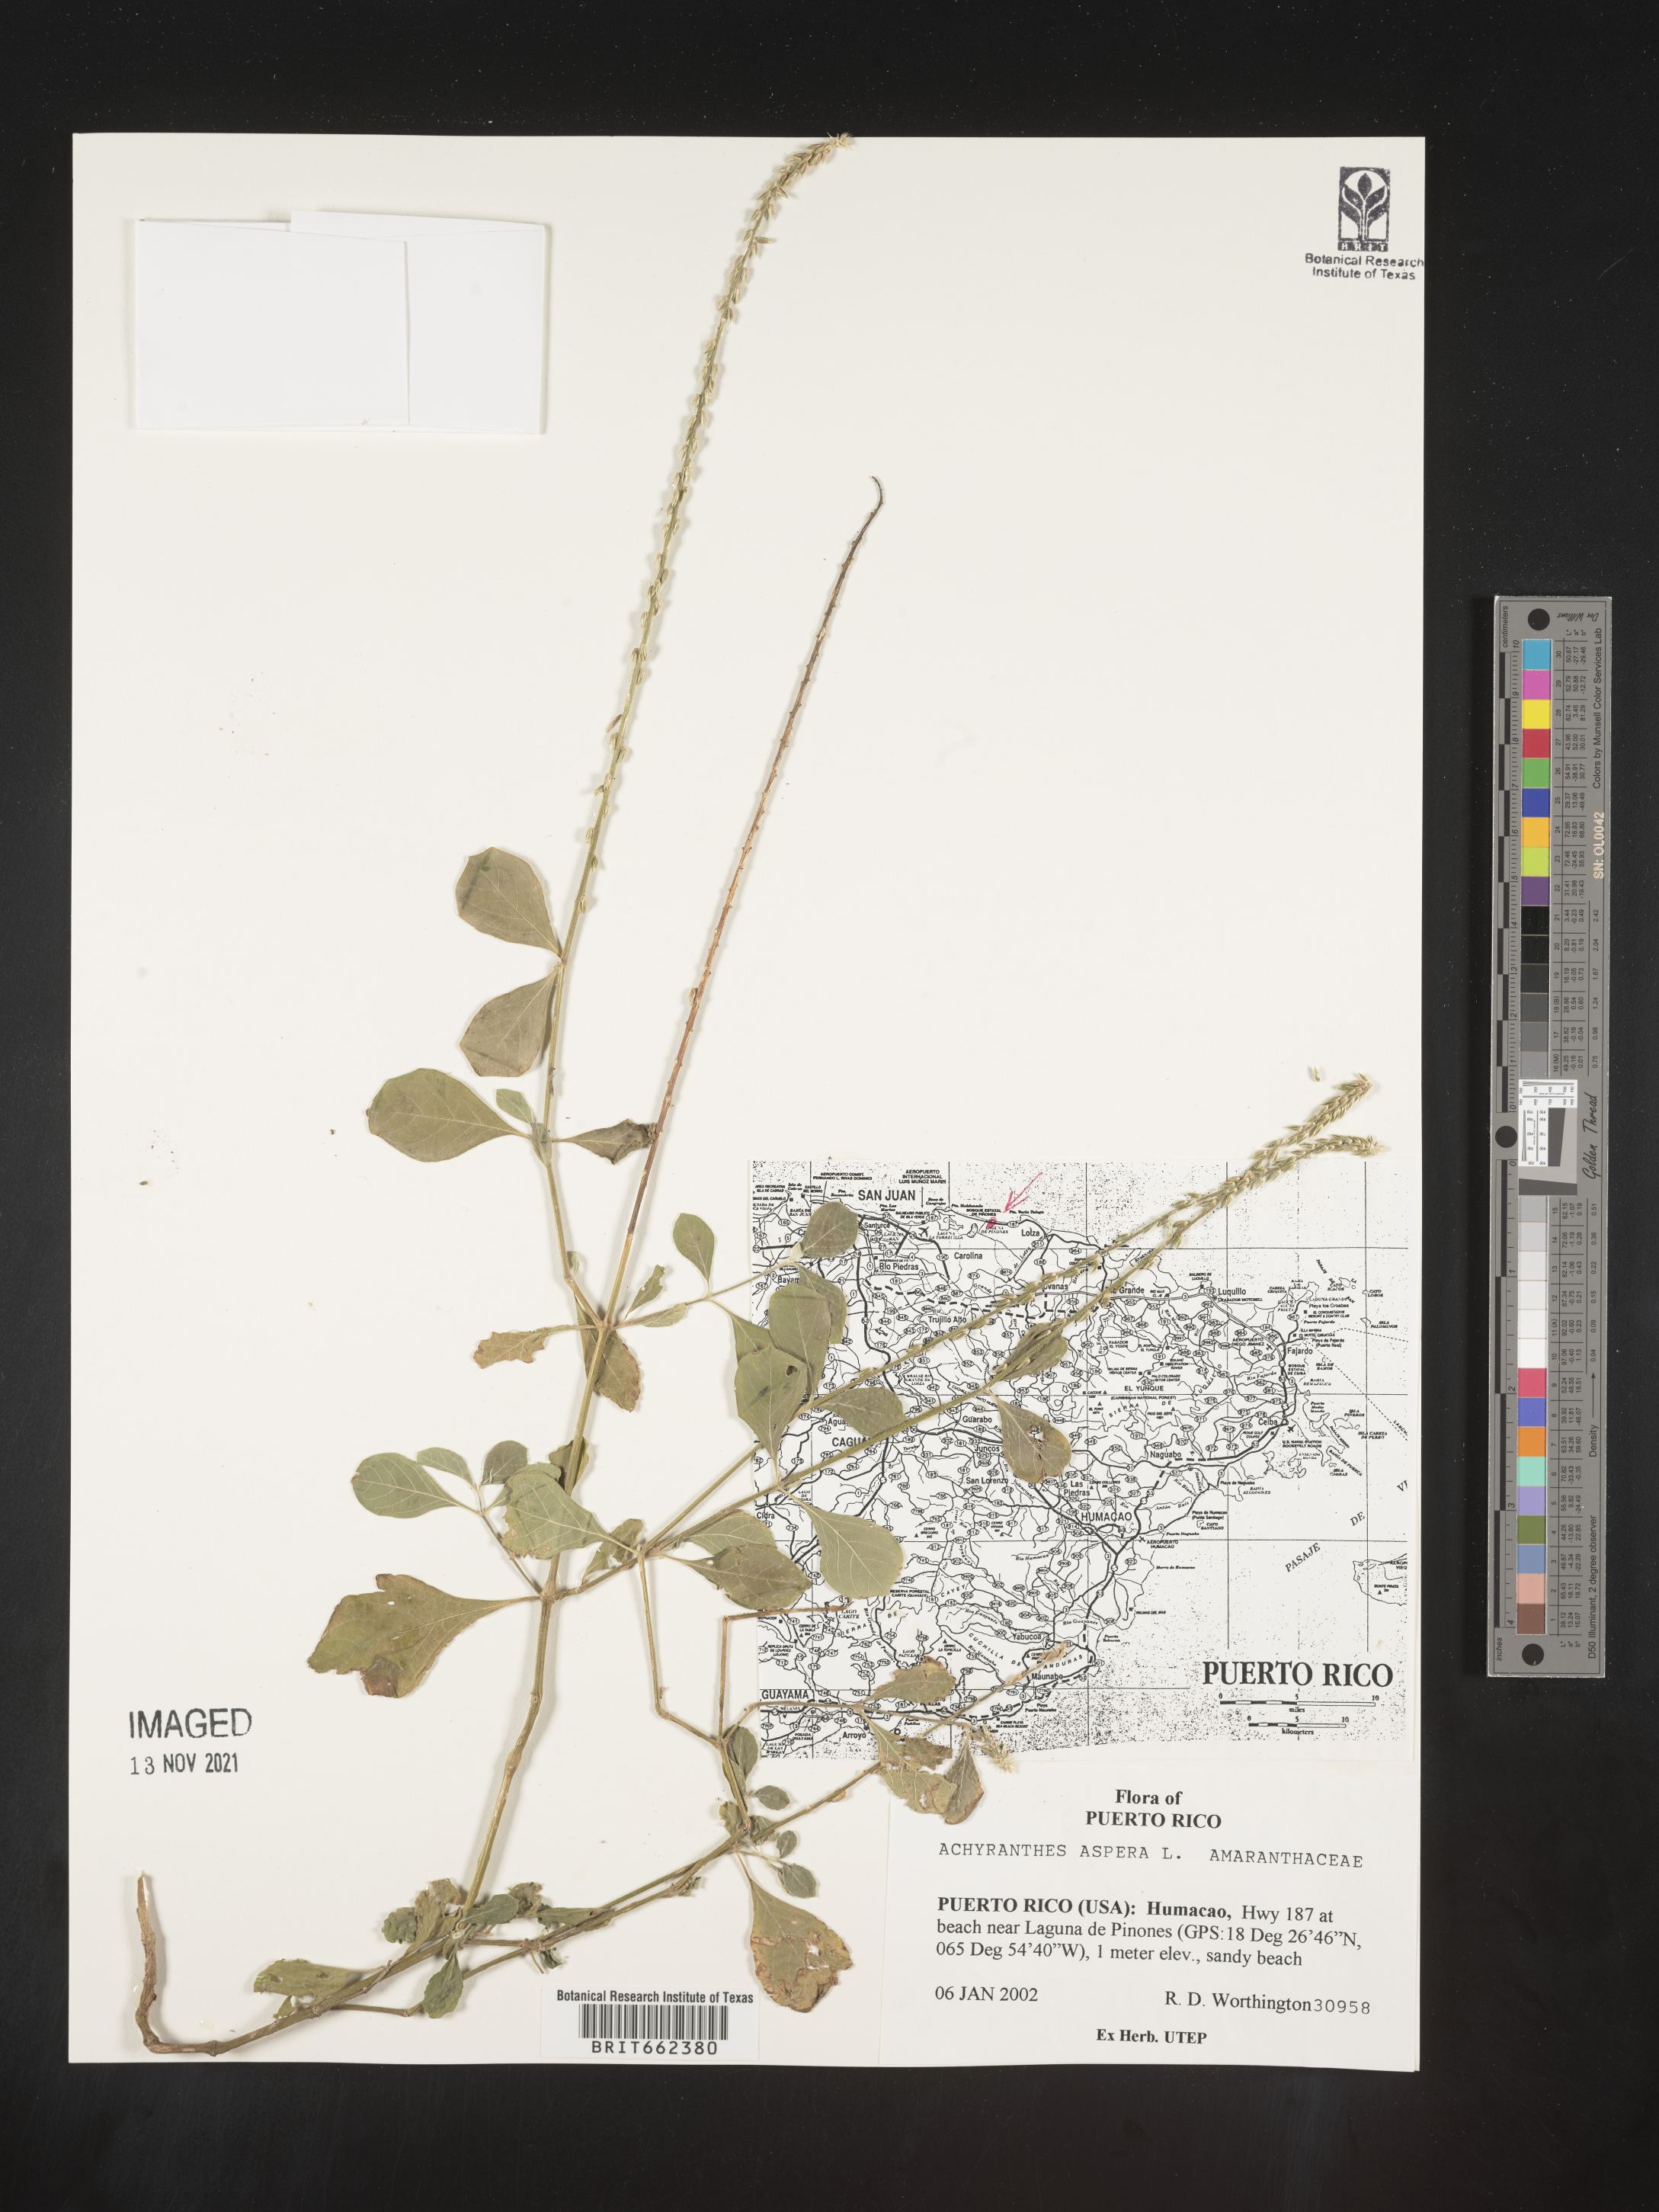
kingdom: Plantae
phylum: Tracheophyta
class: Magnoliopsida
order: Caryophyllales
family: Amaranthaceae
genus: Achyranthes
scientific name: Achyranthes
